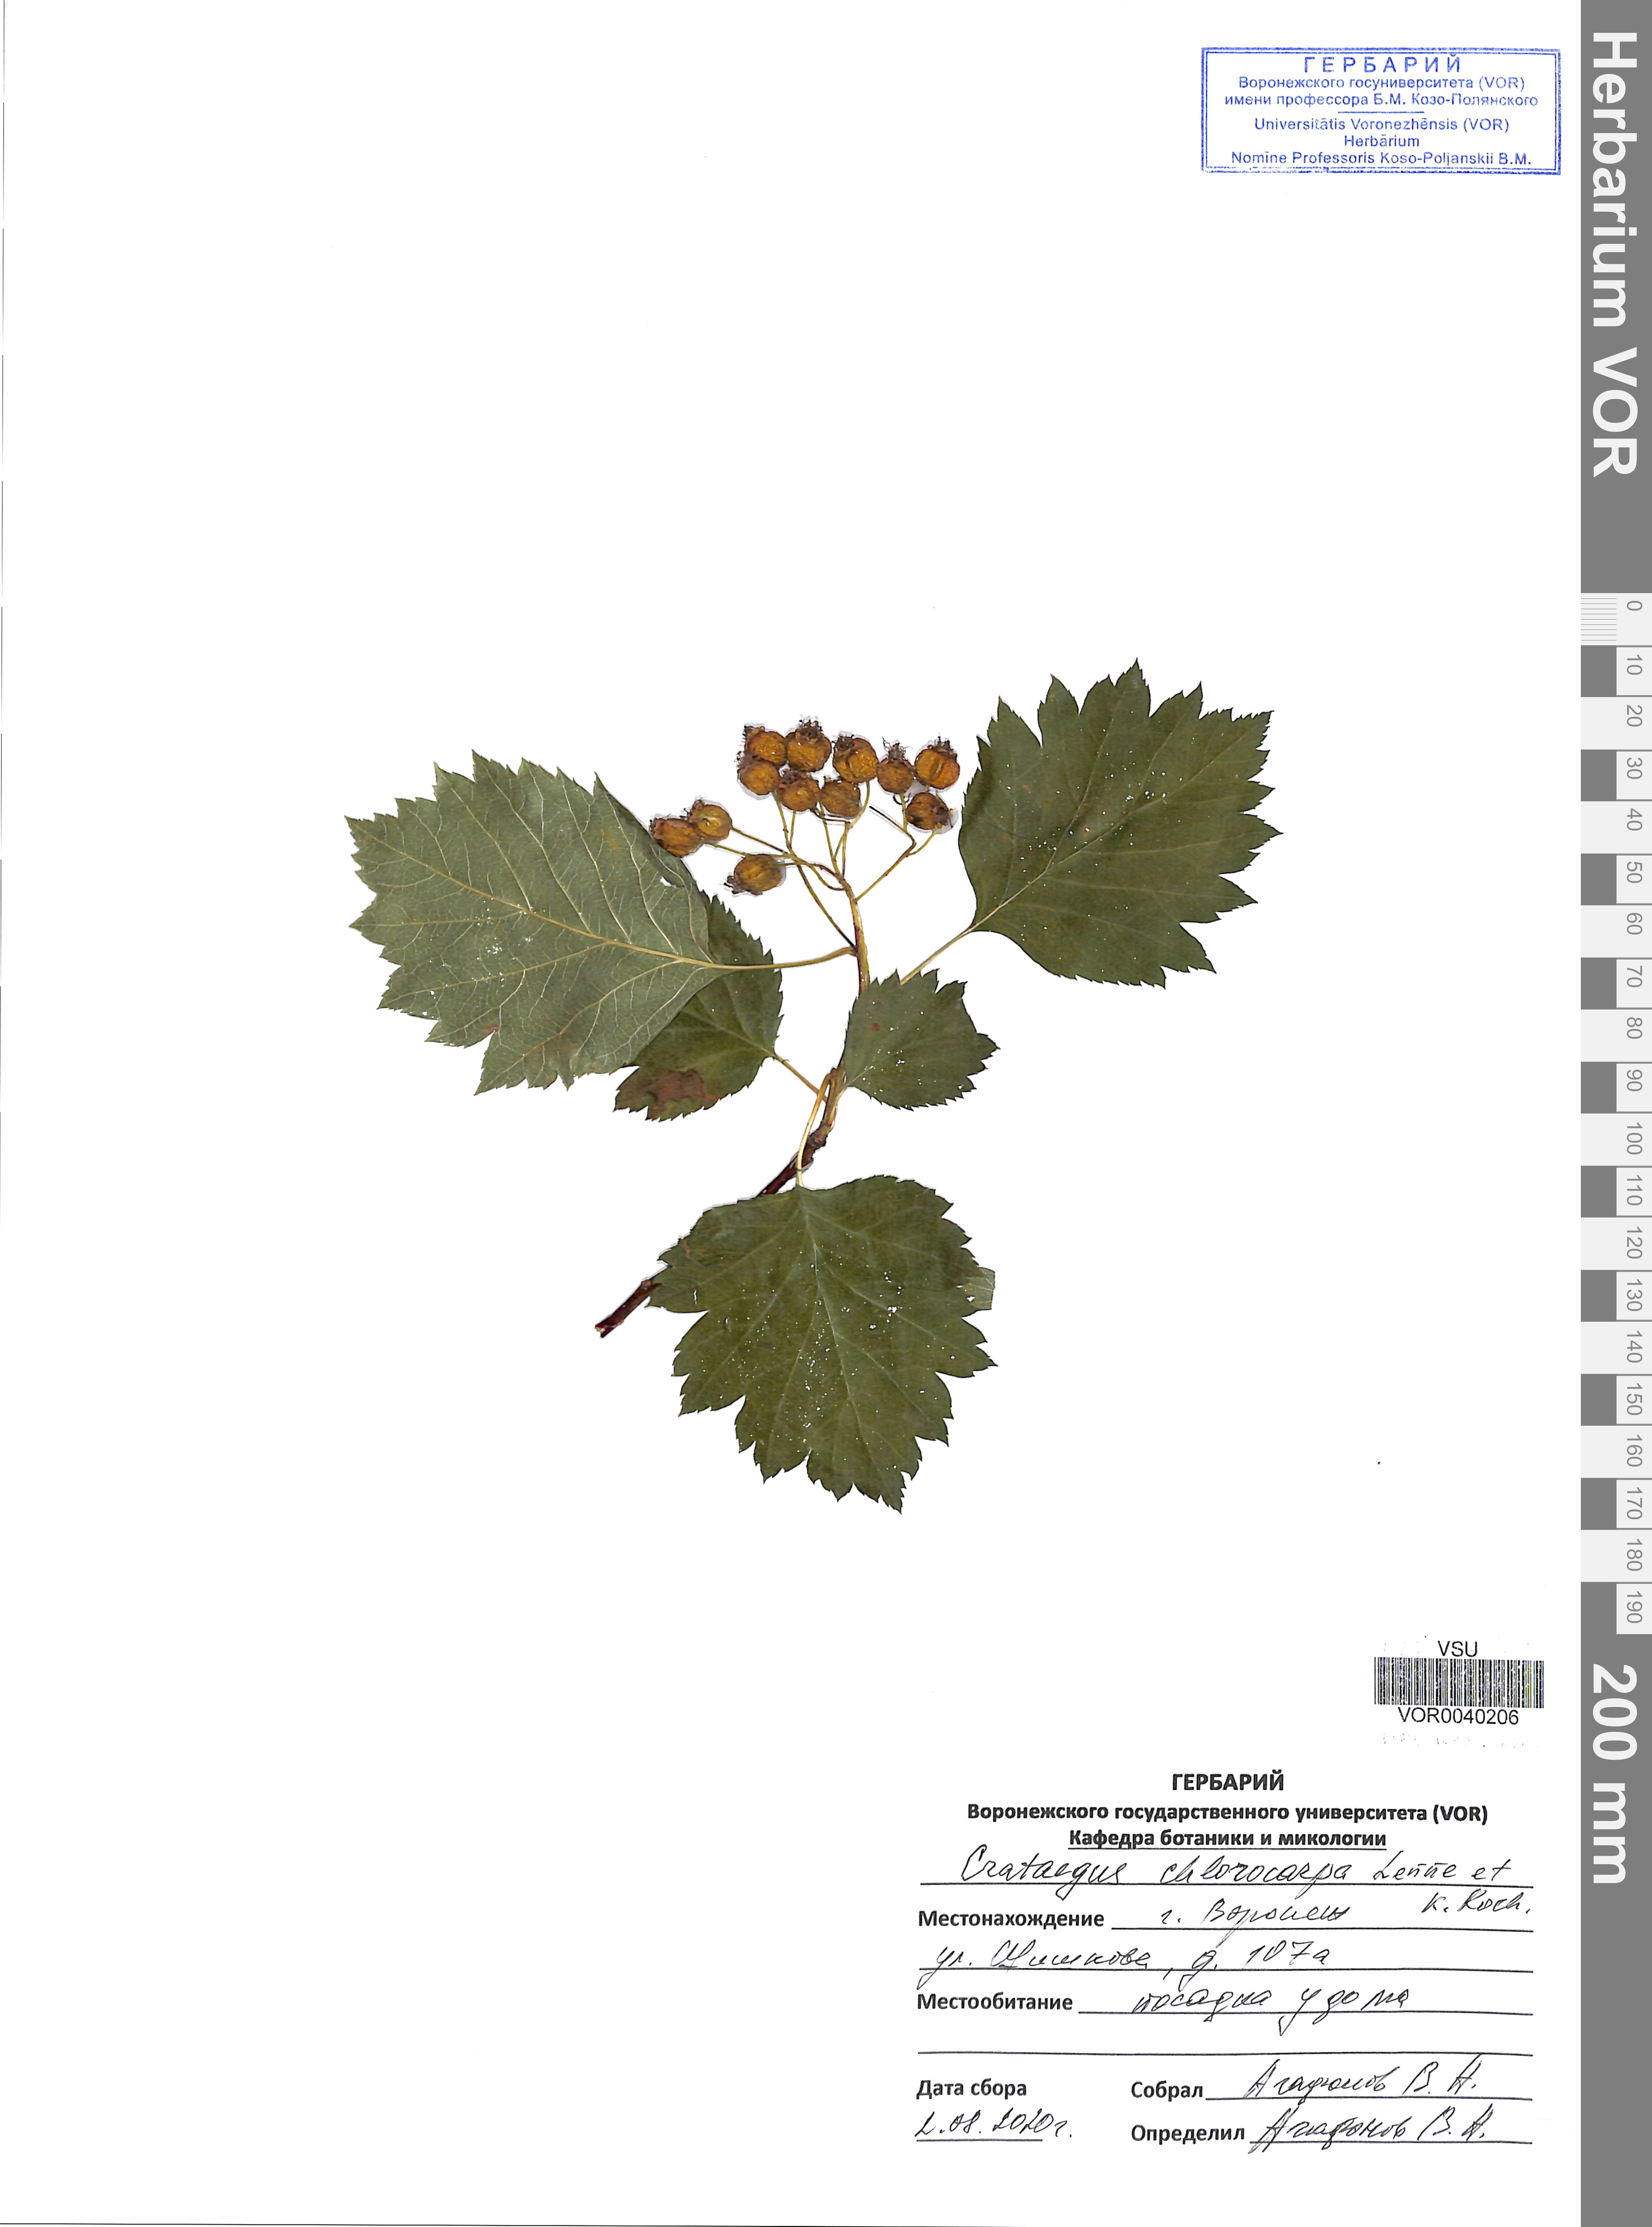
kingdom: Plantae
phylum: Tracheophyta
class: Magnoliopsida
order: Rosales
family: Rosaceae
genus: Crataegus
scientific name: Crataegus chlorocarpa
